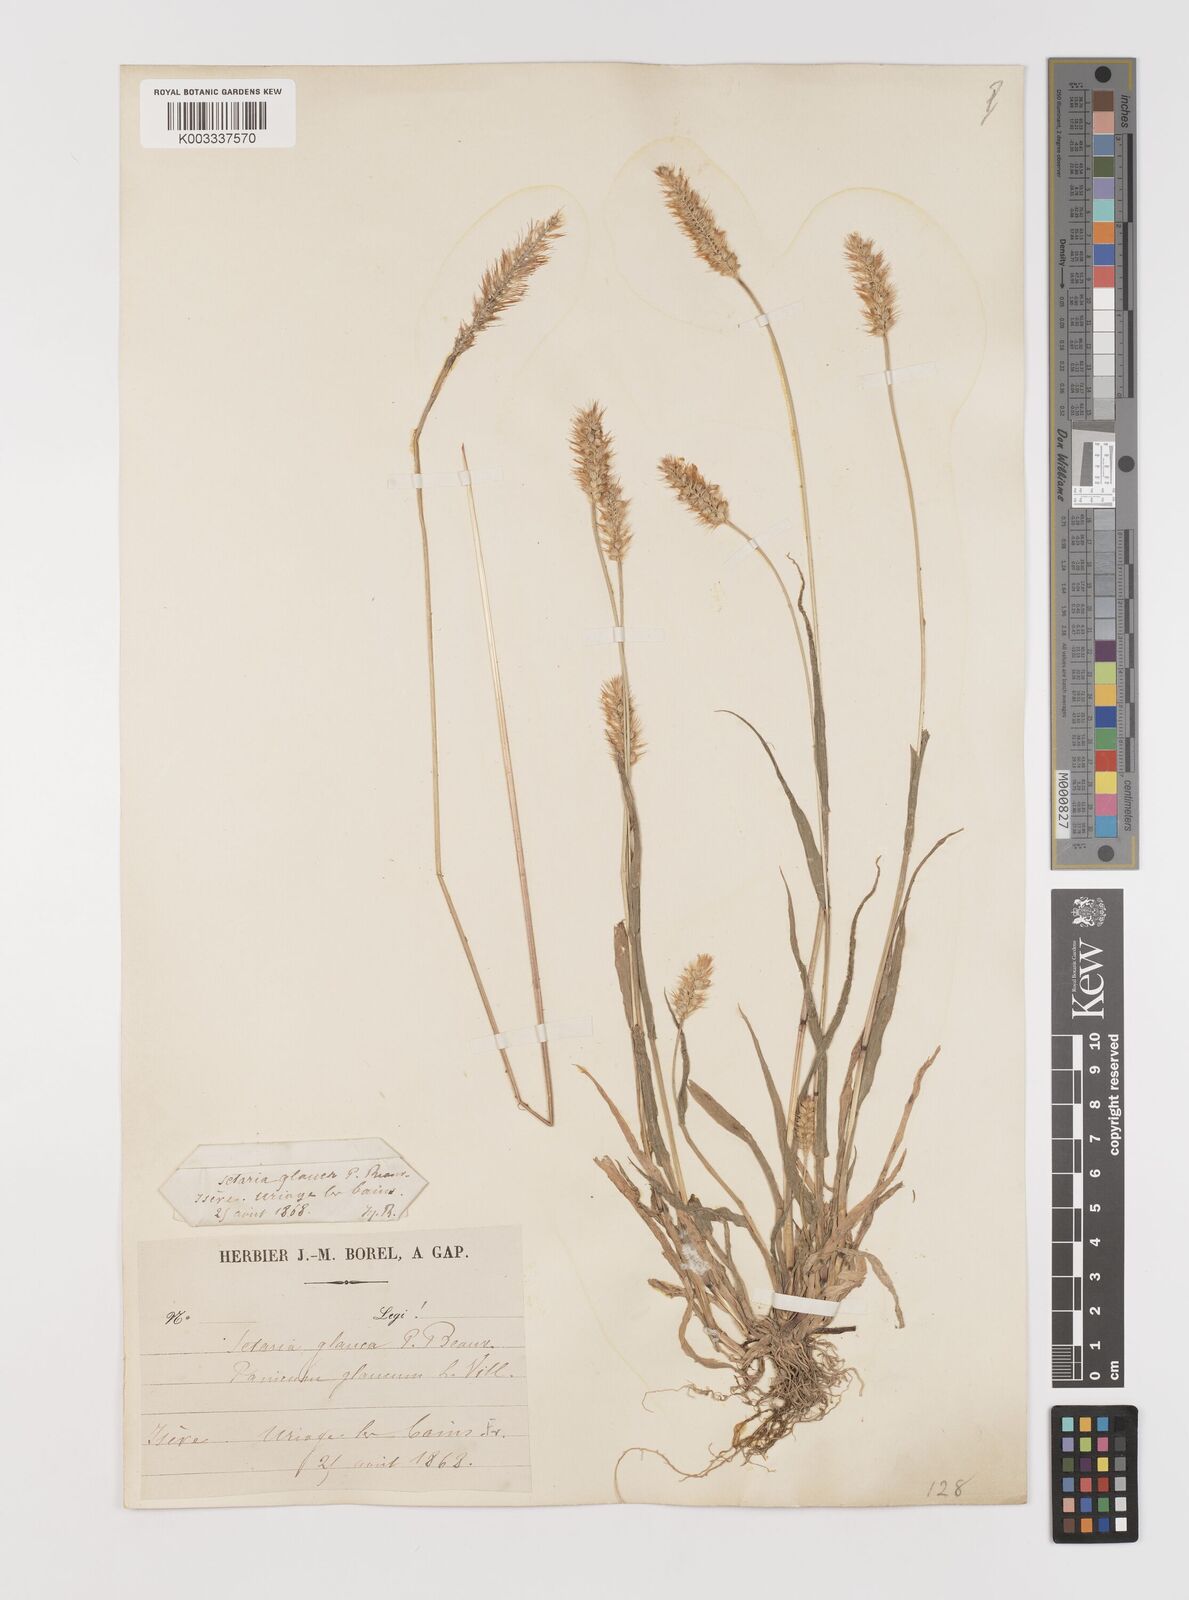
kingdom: Plantae
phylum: Tracheophyta
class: Liliopsida
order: Poales
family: Poaceae
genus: Setaria
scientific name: Setaria pumila
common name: Yellow bristle-grass
